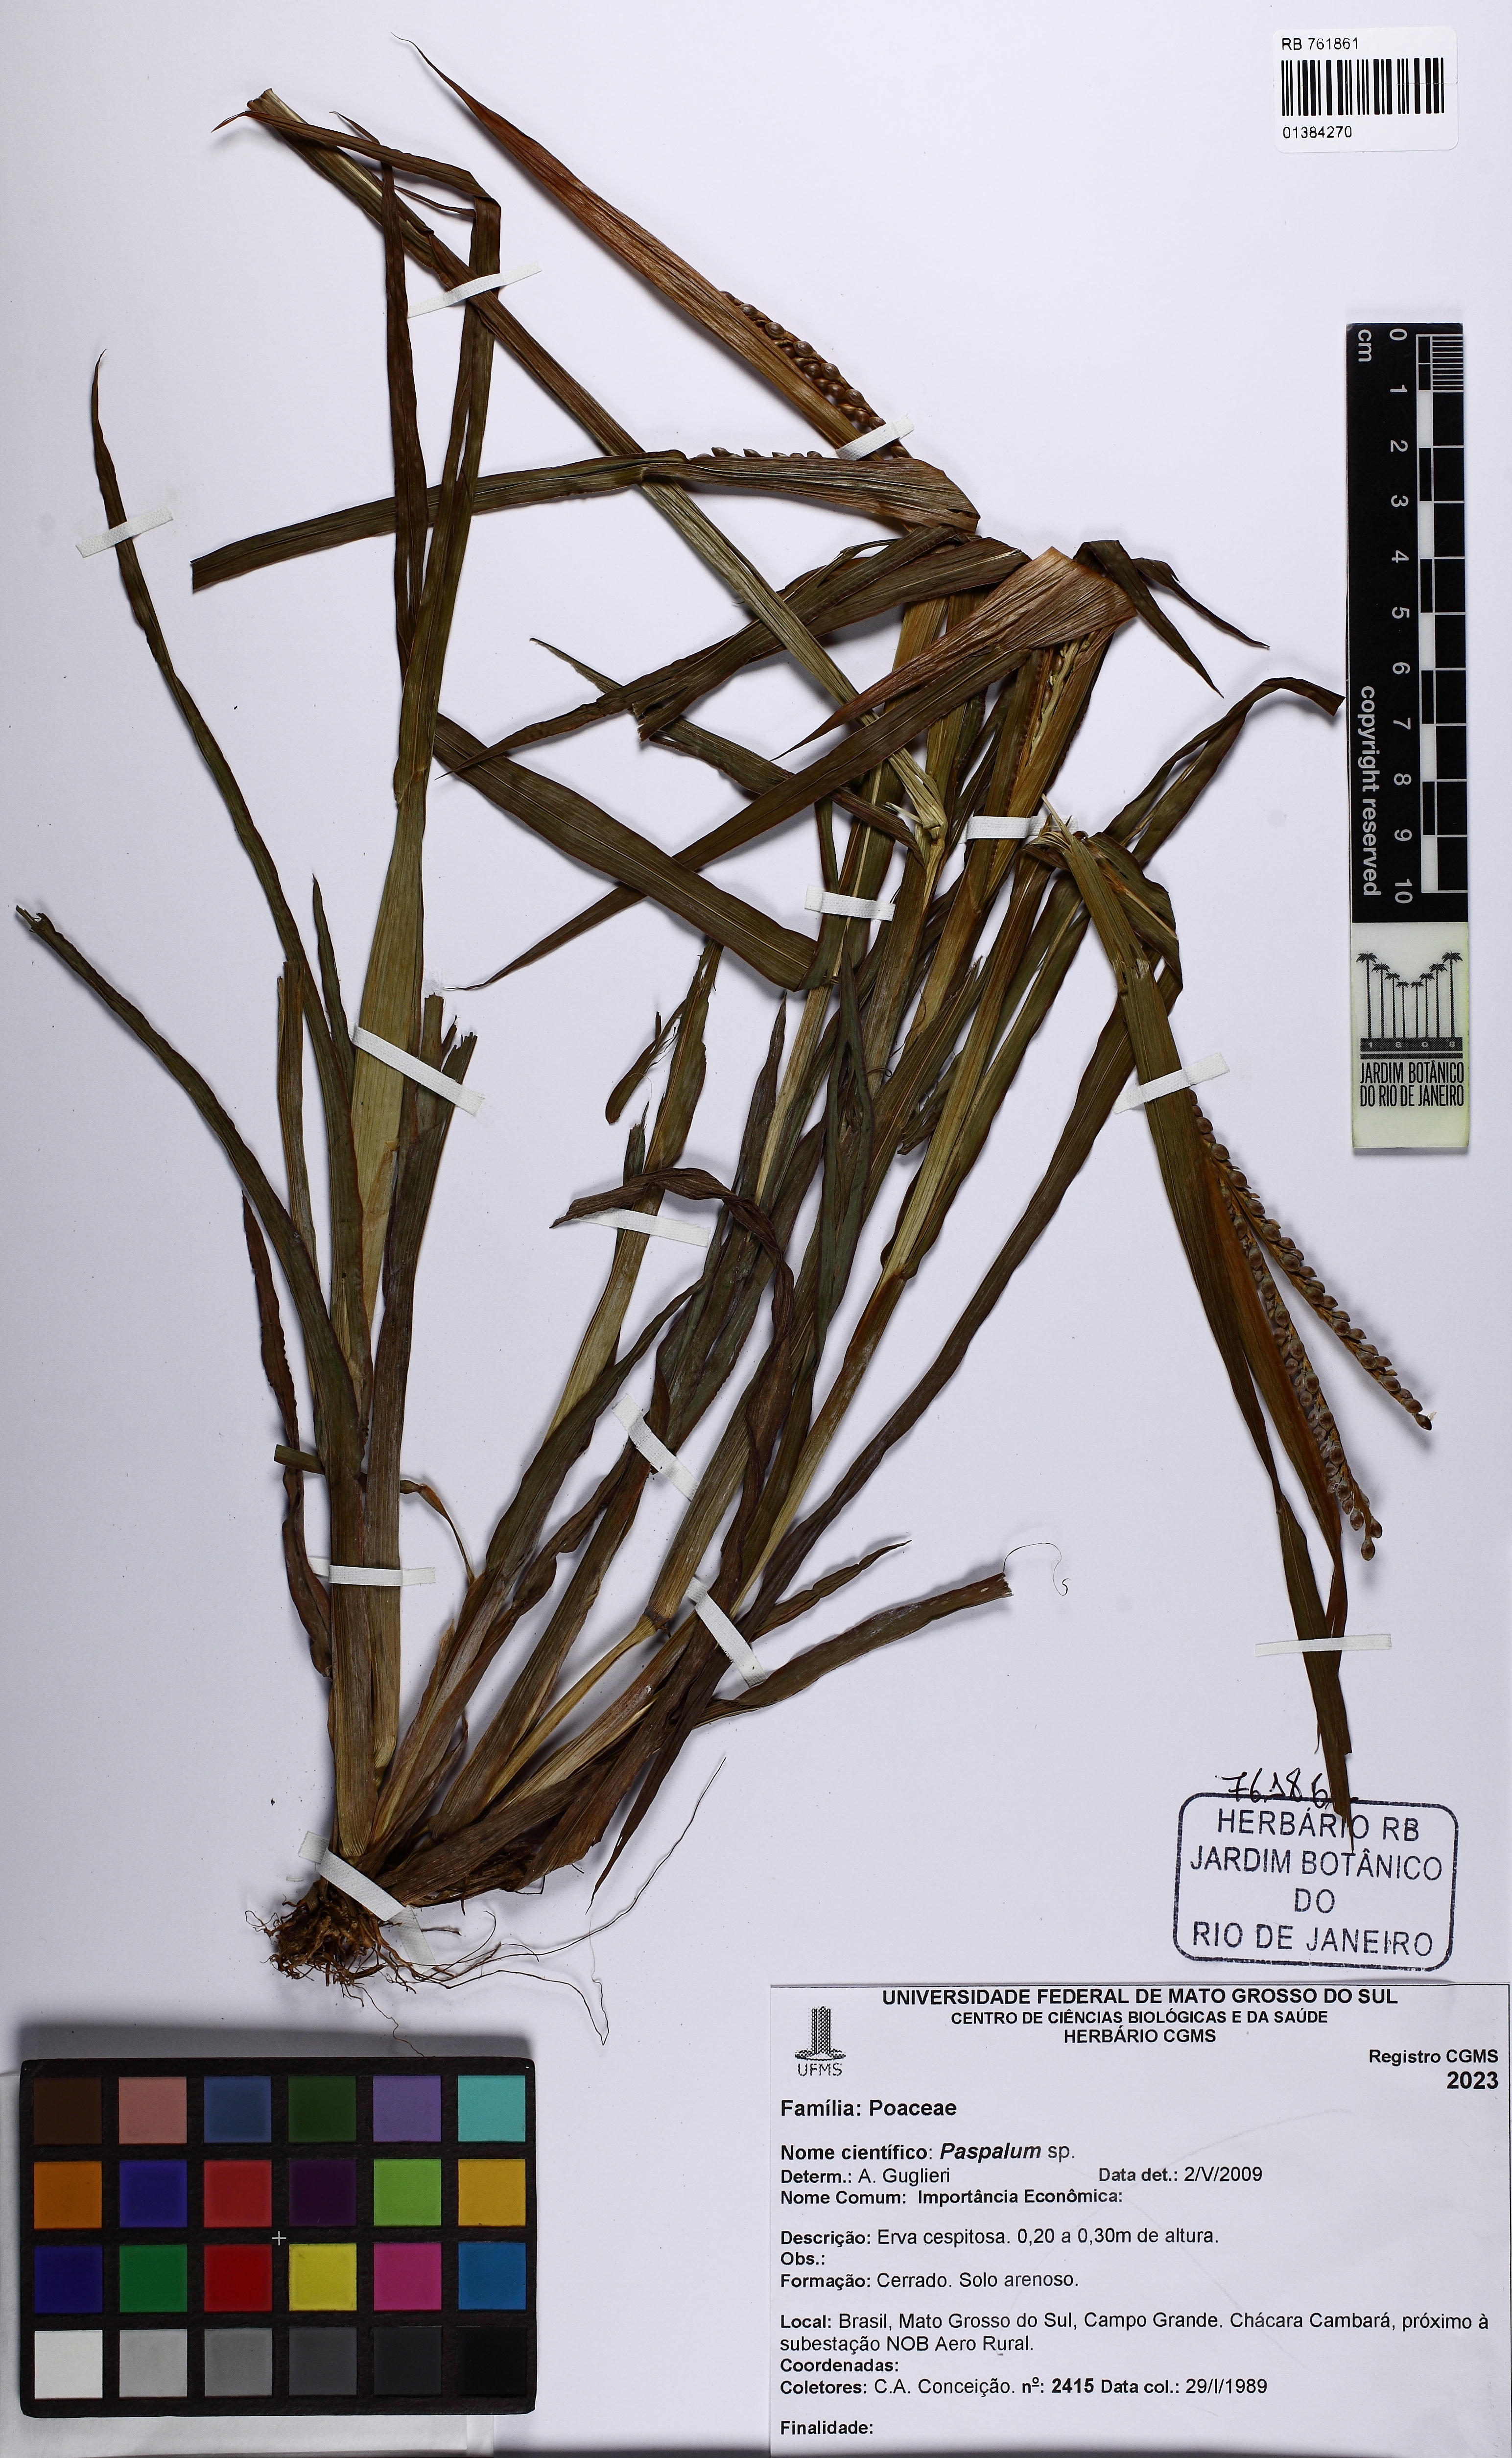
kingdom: Plantae
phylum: Tracheophyta
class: Liliopsida
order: Poales
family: Poaceae
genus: Paspalum
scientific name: Paspalum
